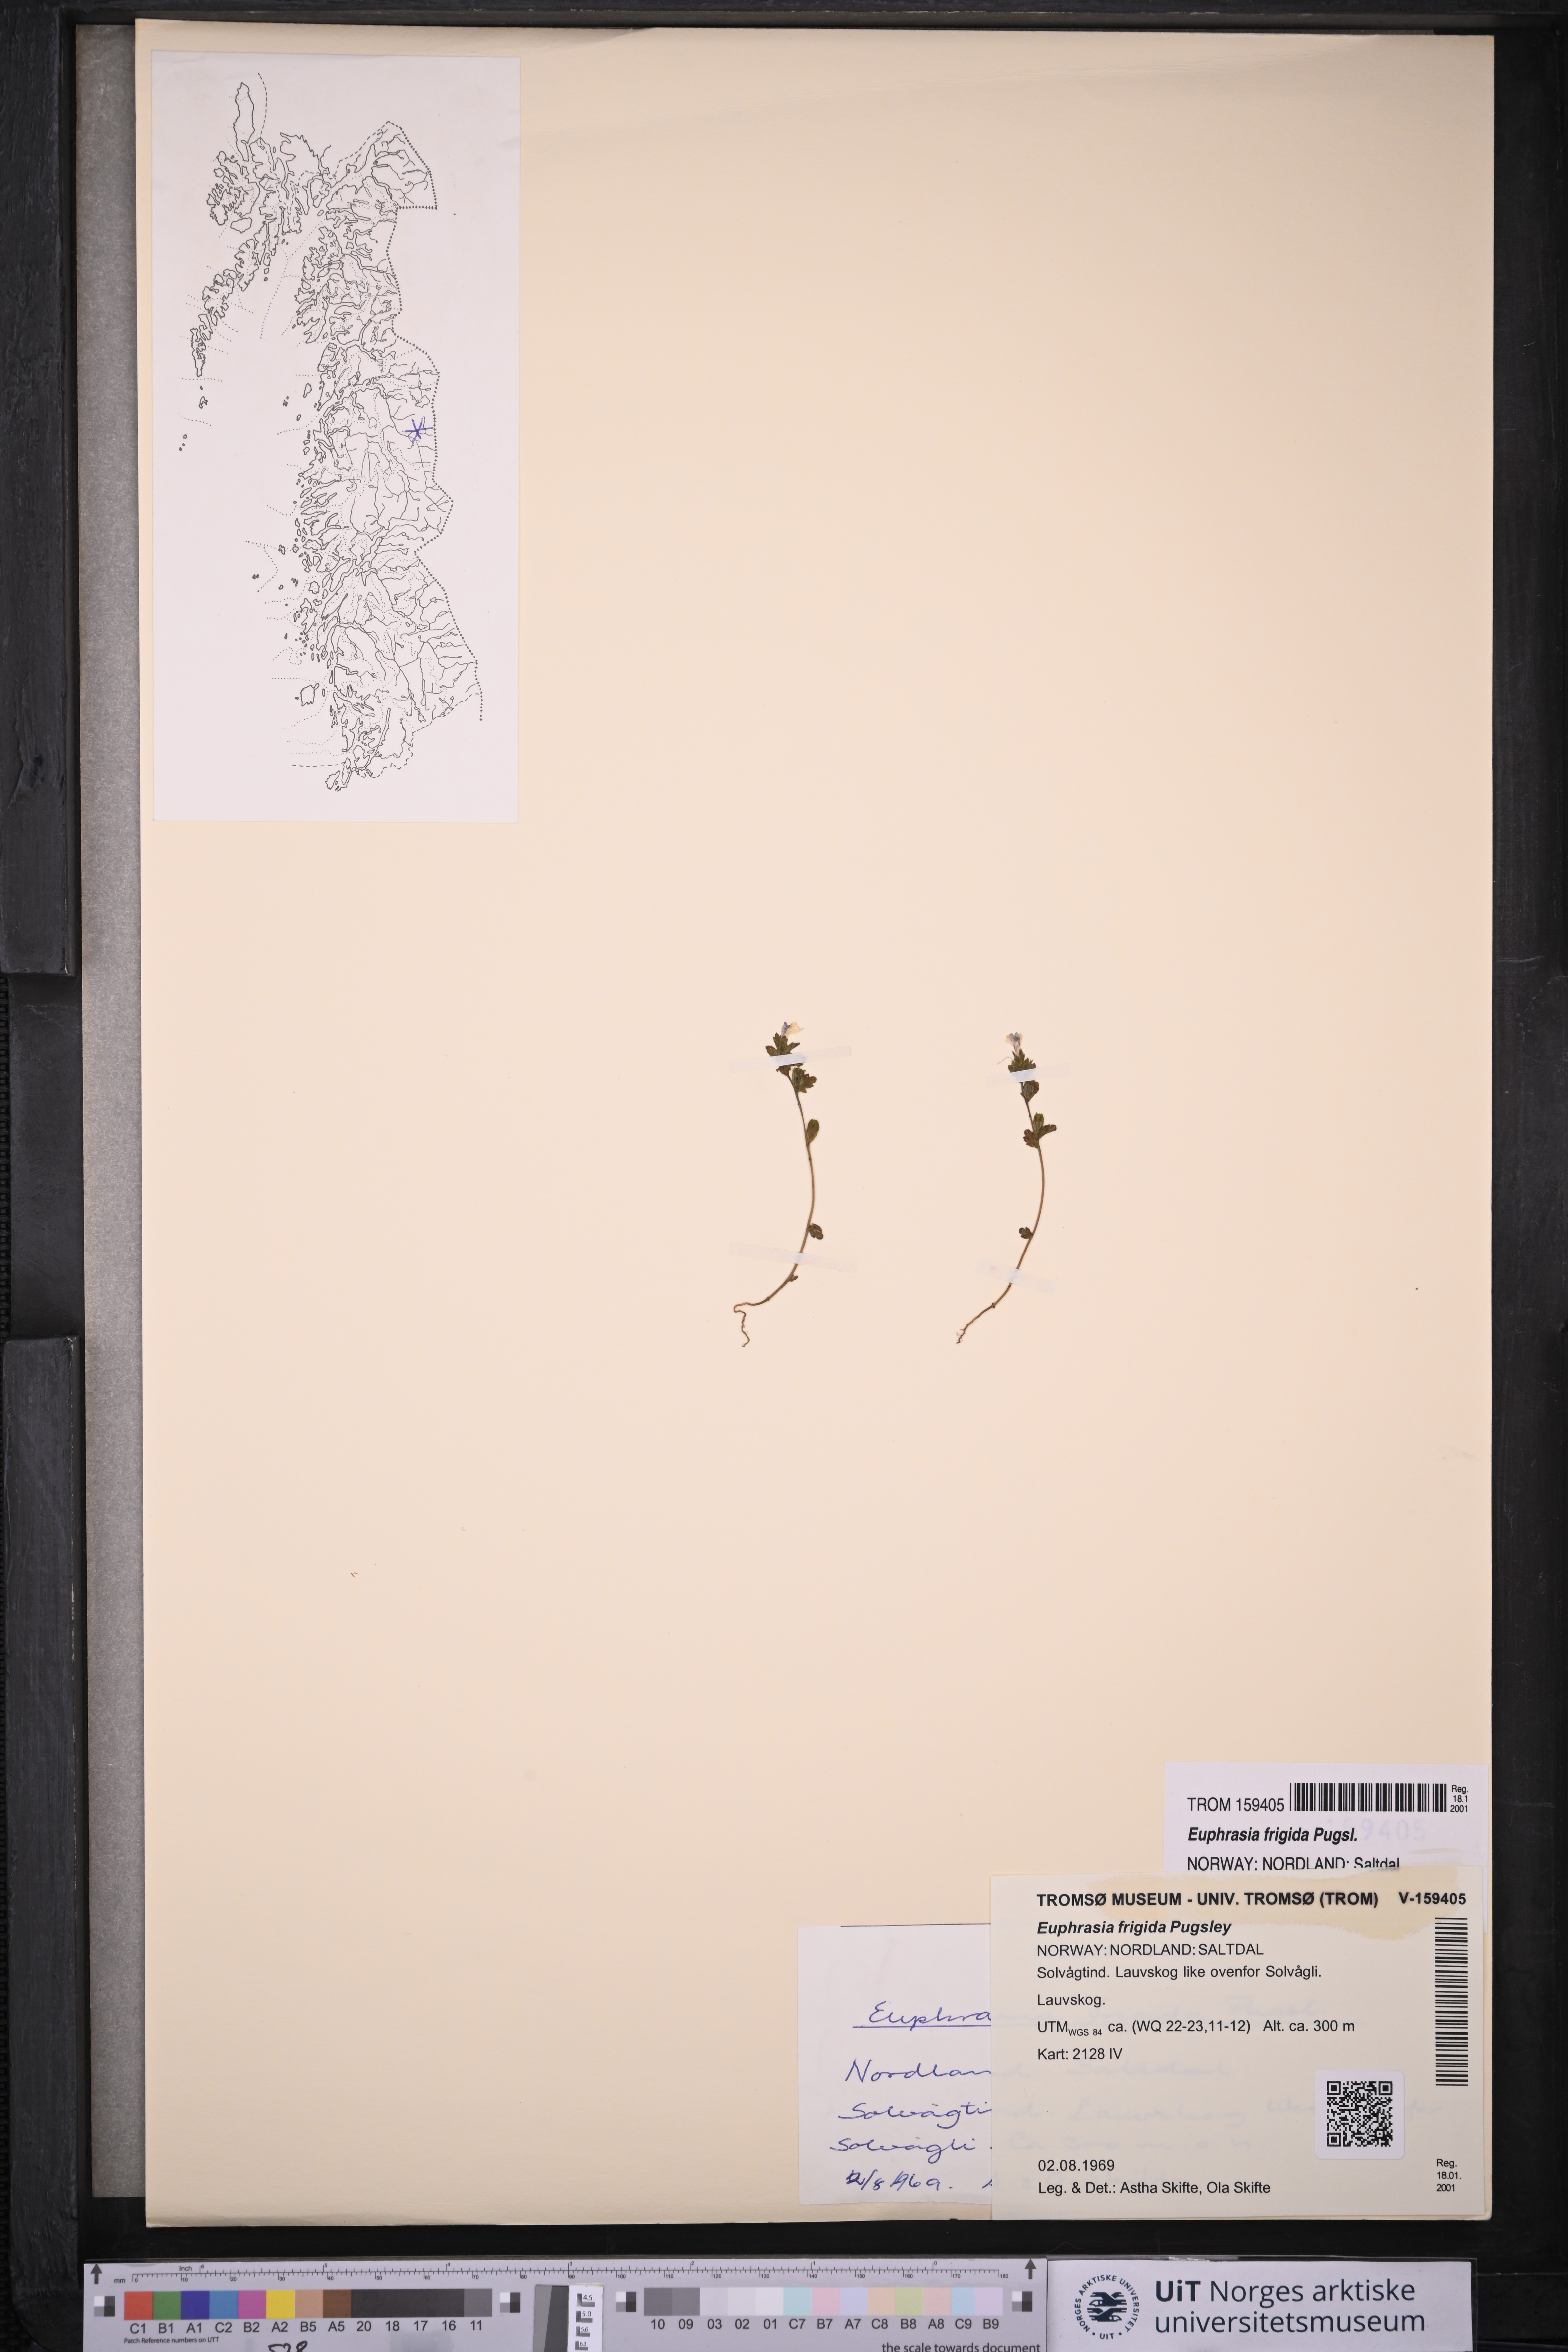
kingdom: Plantae
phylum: Tracheophyta
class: Magnoliopsida
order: Lamiales
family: Orobanchaceae
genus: Euphrasia
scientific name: Euphrasia frigida
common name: An eyebright
